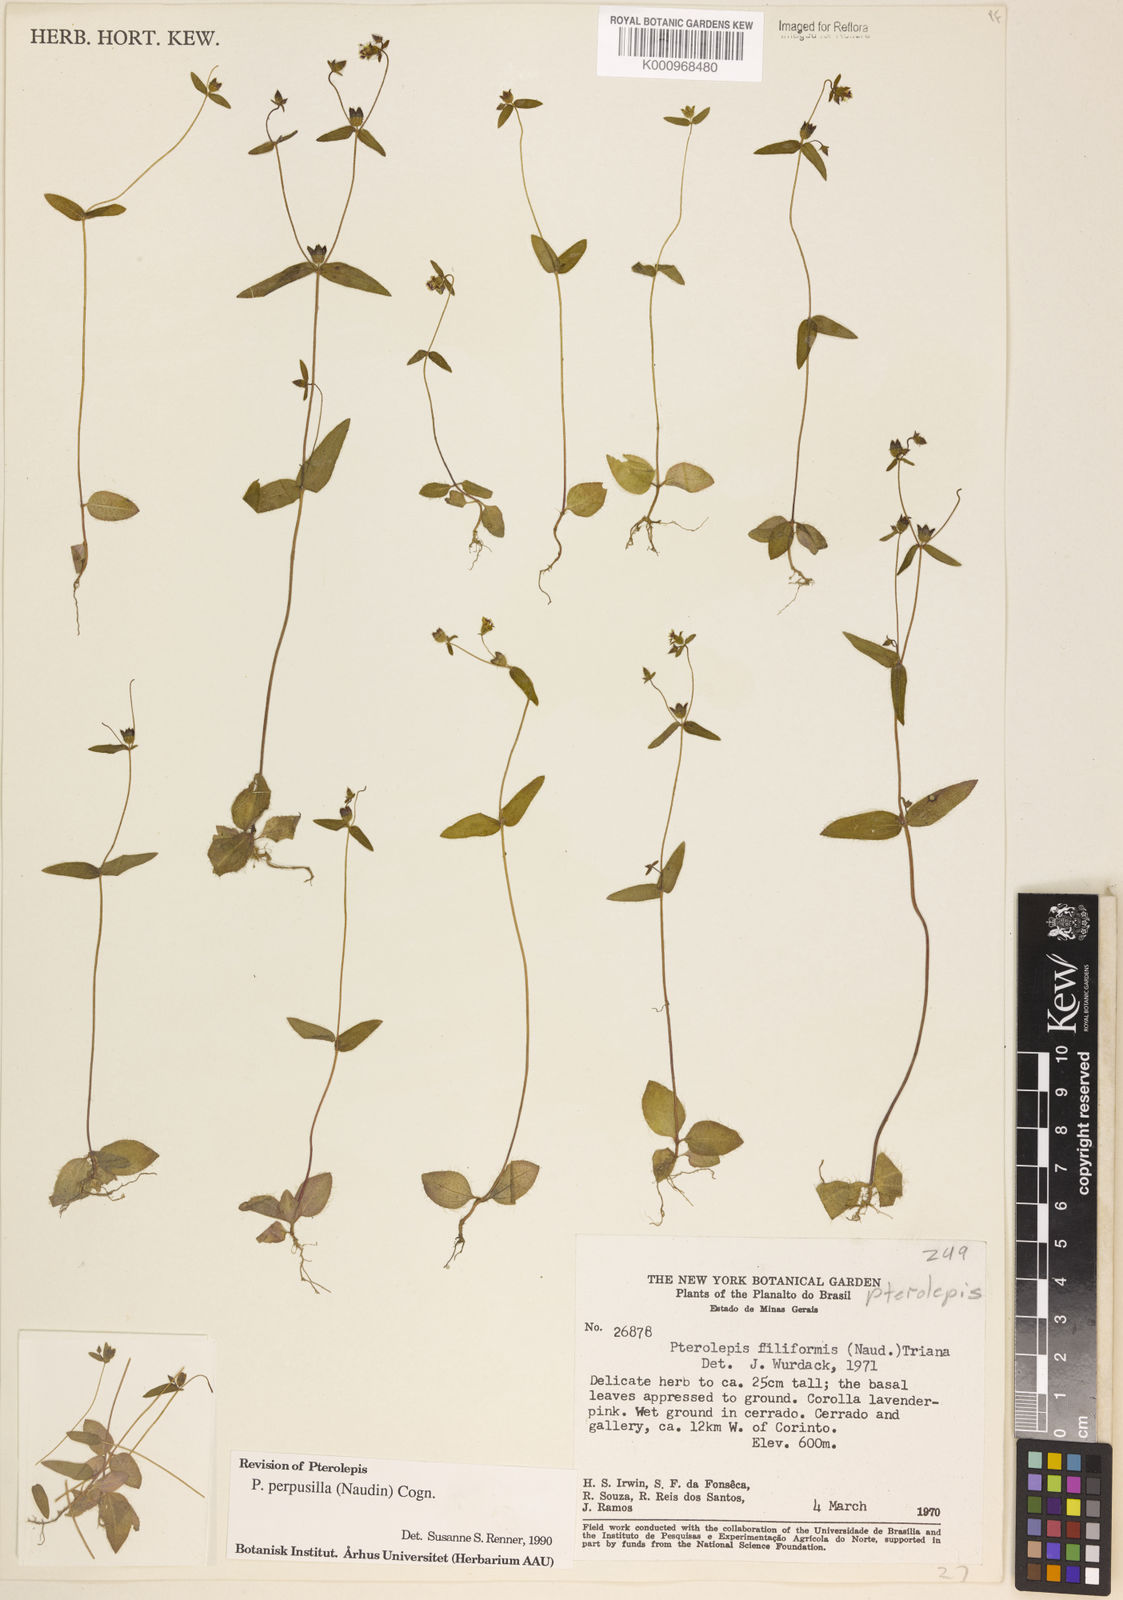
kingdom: Plantae
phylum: Tracheophyta
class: Magnoliopsida
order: Myrtales
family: Melastomataceae
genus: Pterolepis
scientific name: Pterolepis perpusilla
